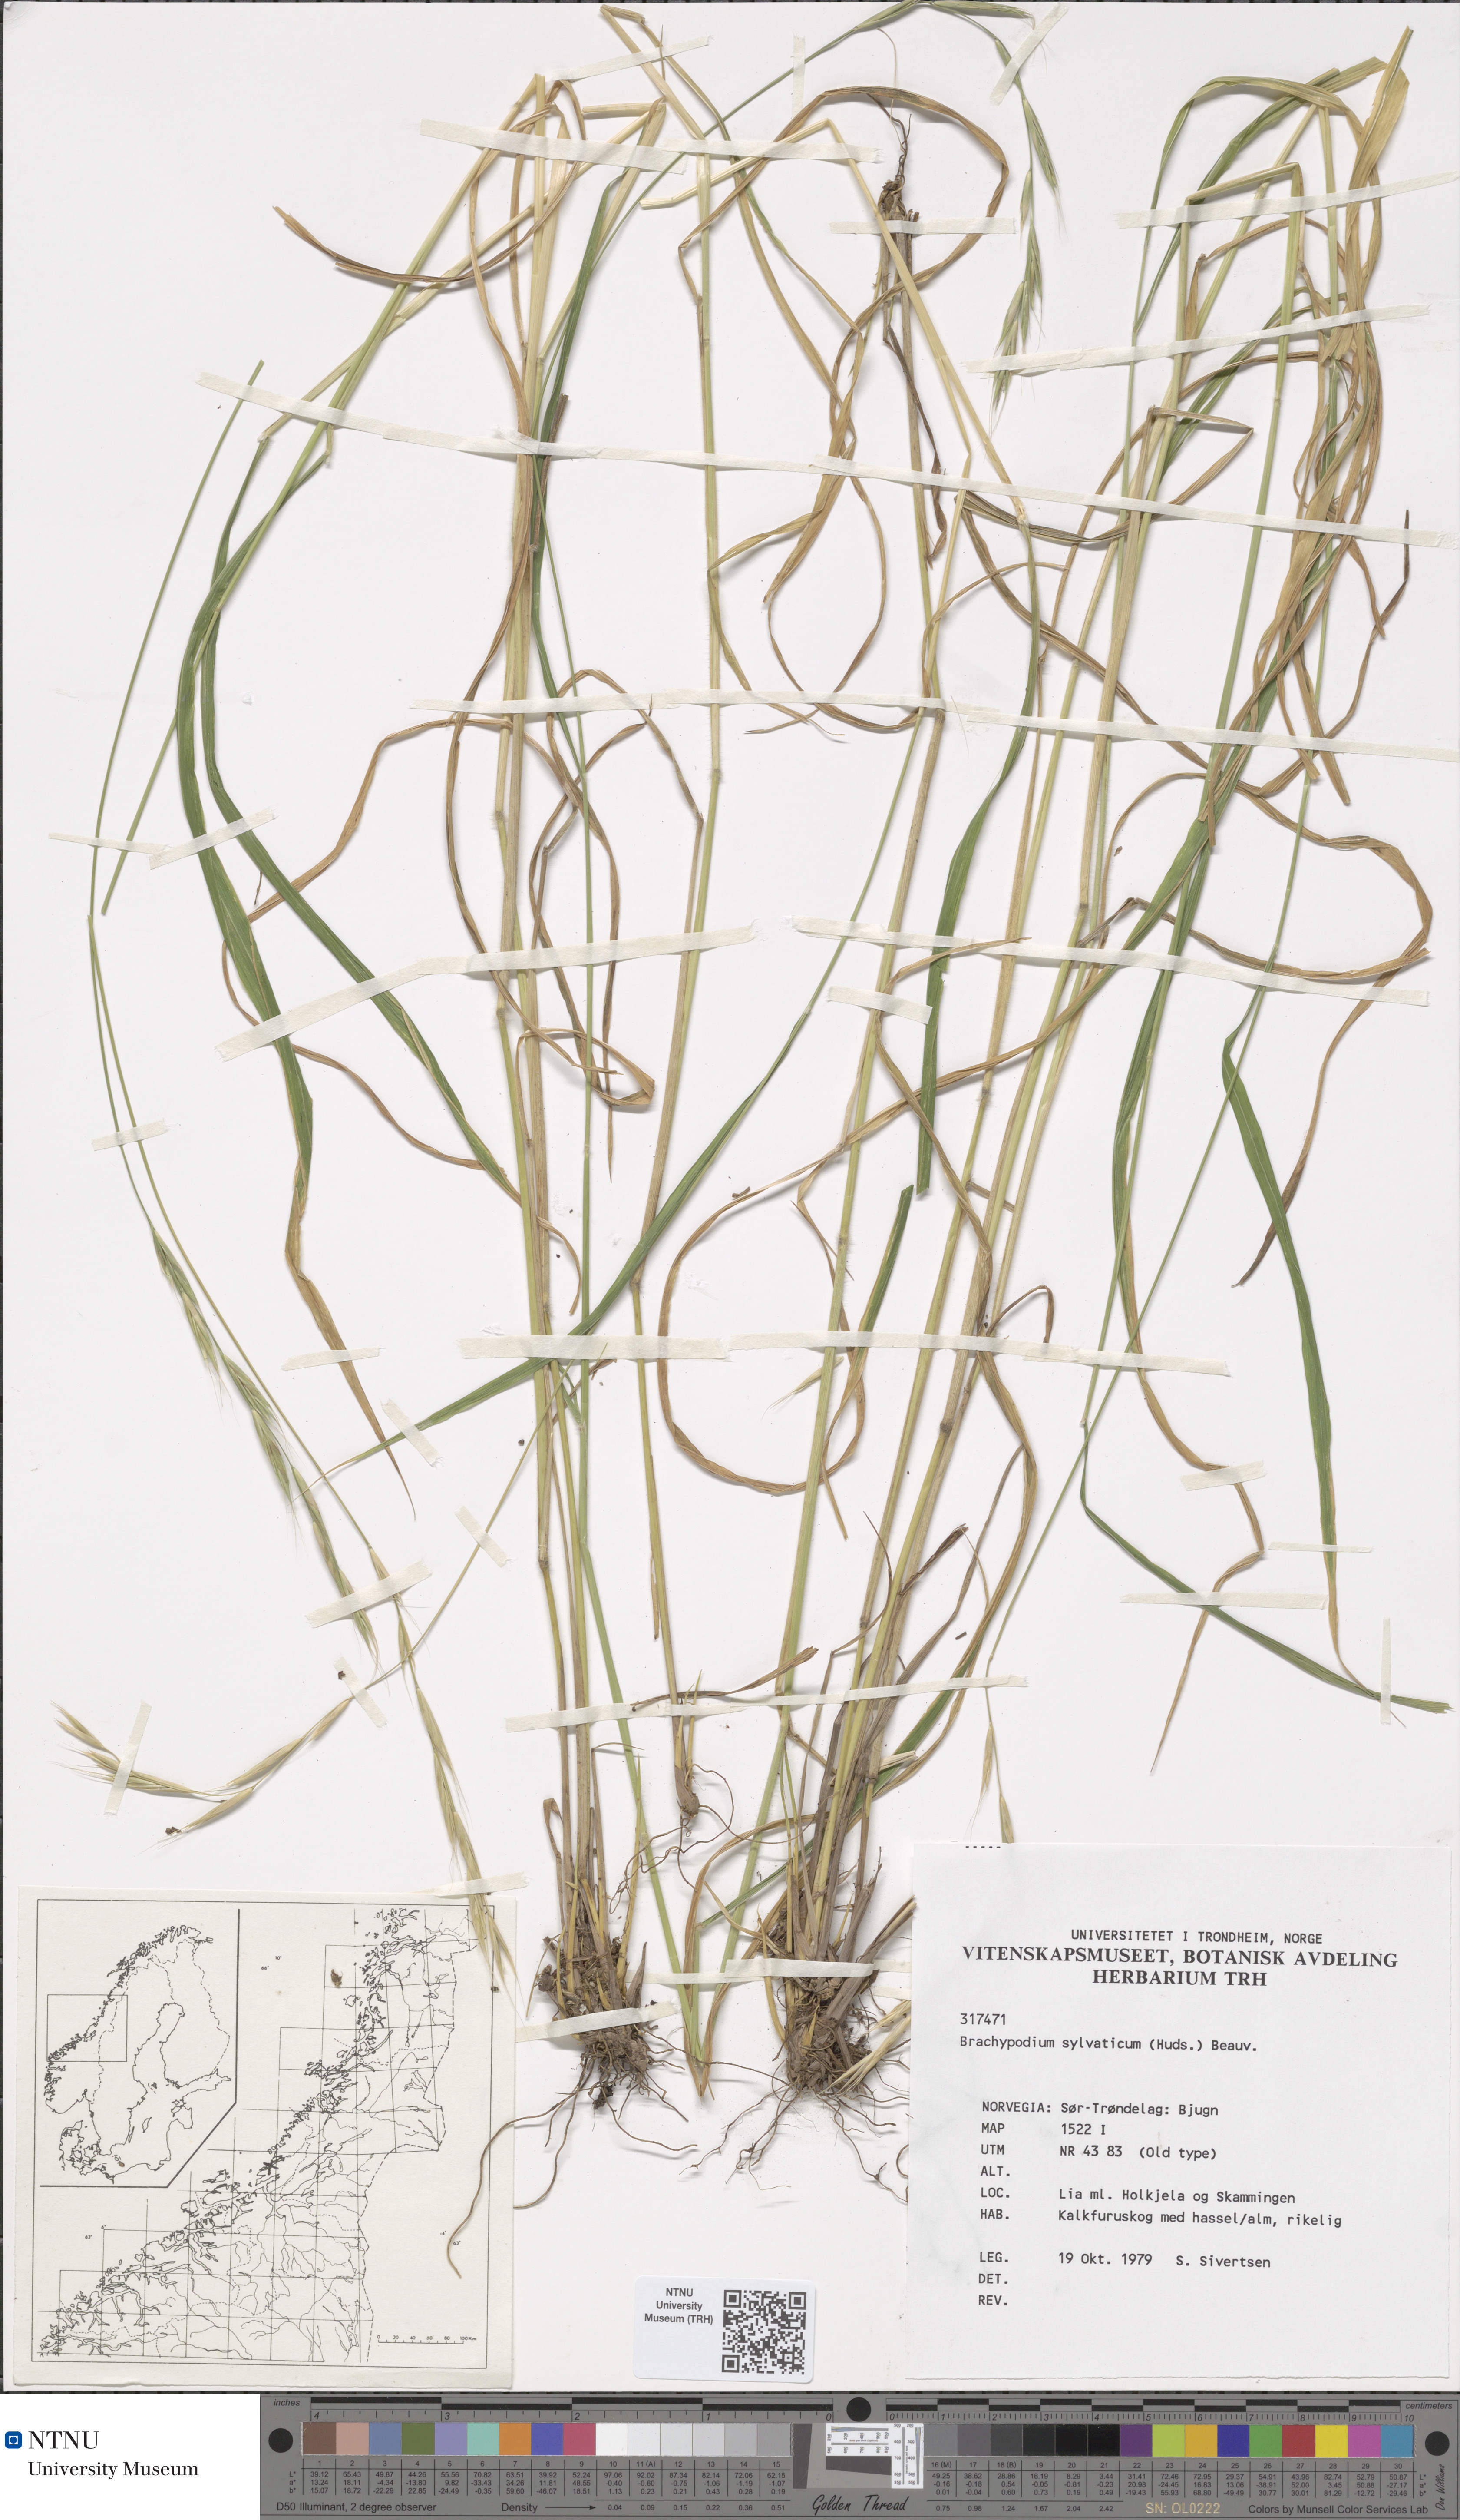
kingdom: Plantae
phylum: Tracheophyta
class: Liliopsida
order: Poales
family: Poaceae
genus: Brachypodium
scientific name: Brachypodium sylvaticum
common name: False-brome
